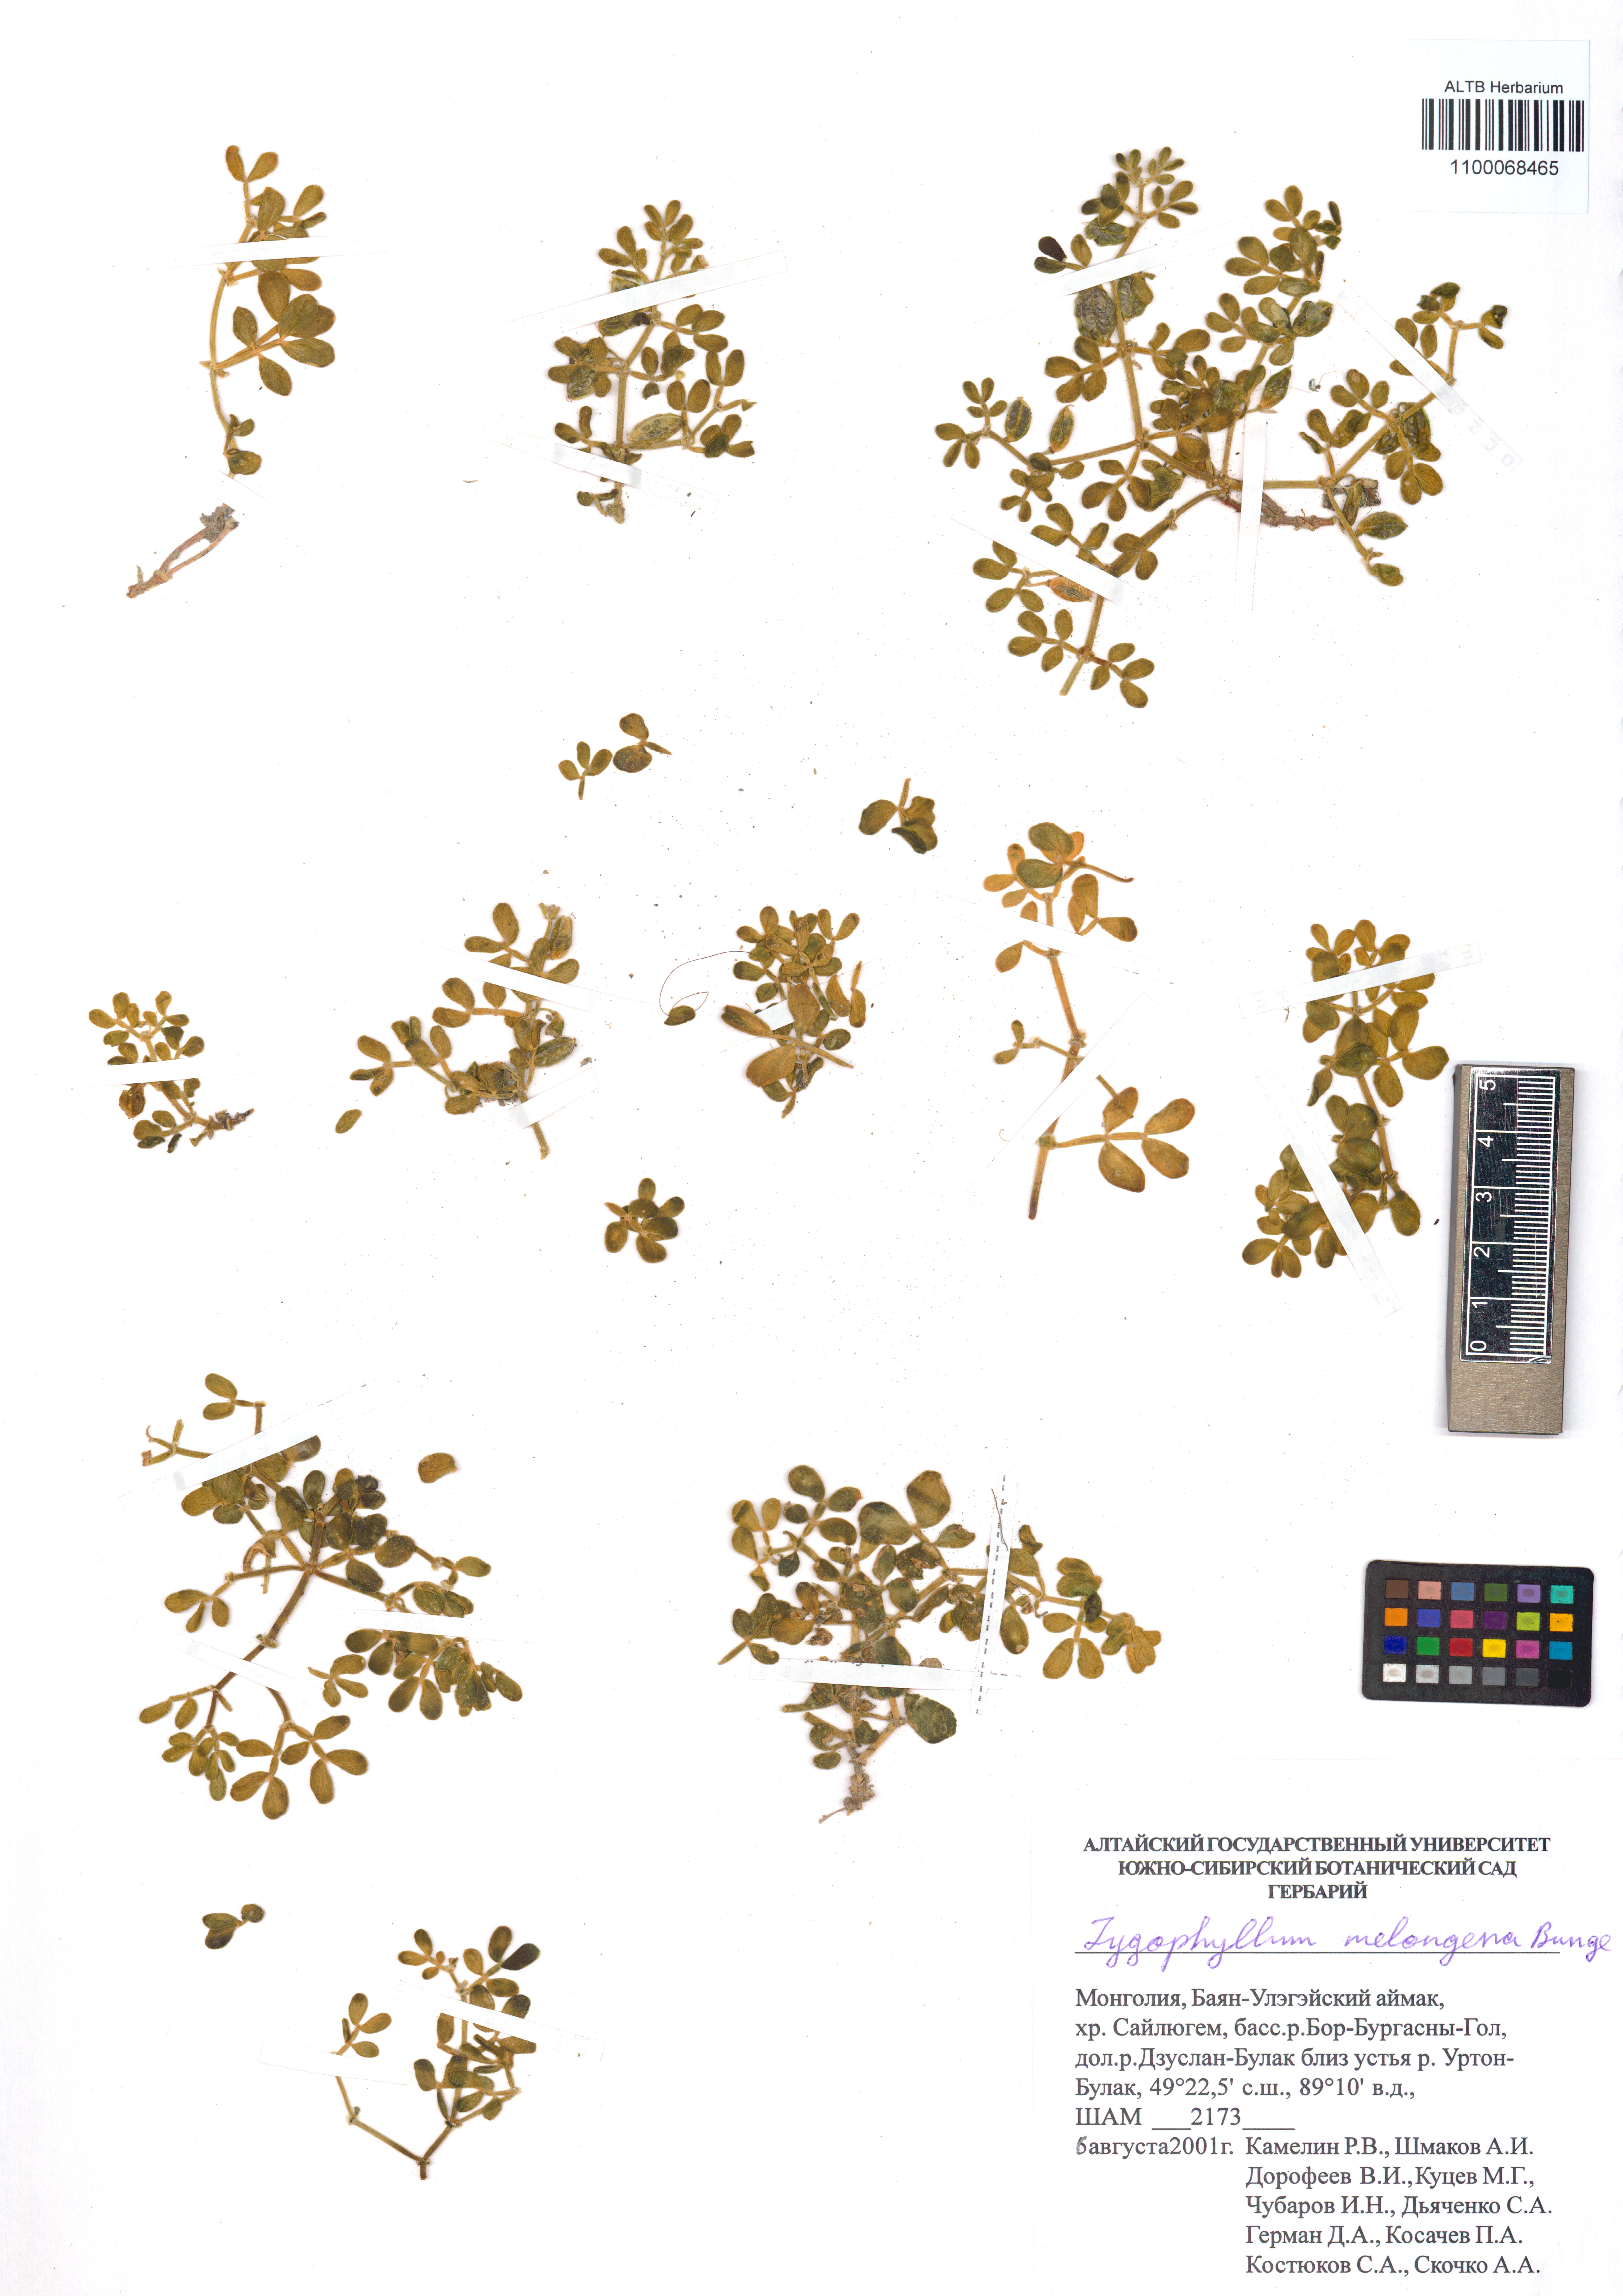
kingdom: Plantae
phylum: Tracheophyta
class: Magnoliopsida
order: Zygophyllales
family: Zygophyllaceae
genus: Zygophyllum
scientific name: Zygophyllum melongena
